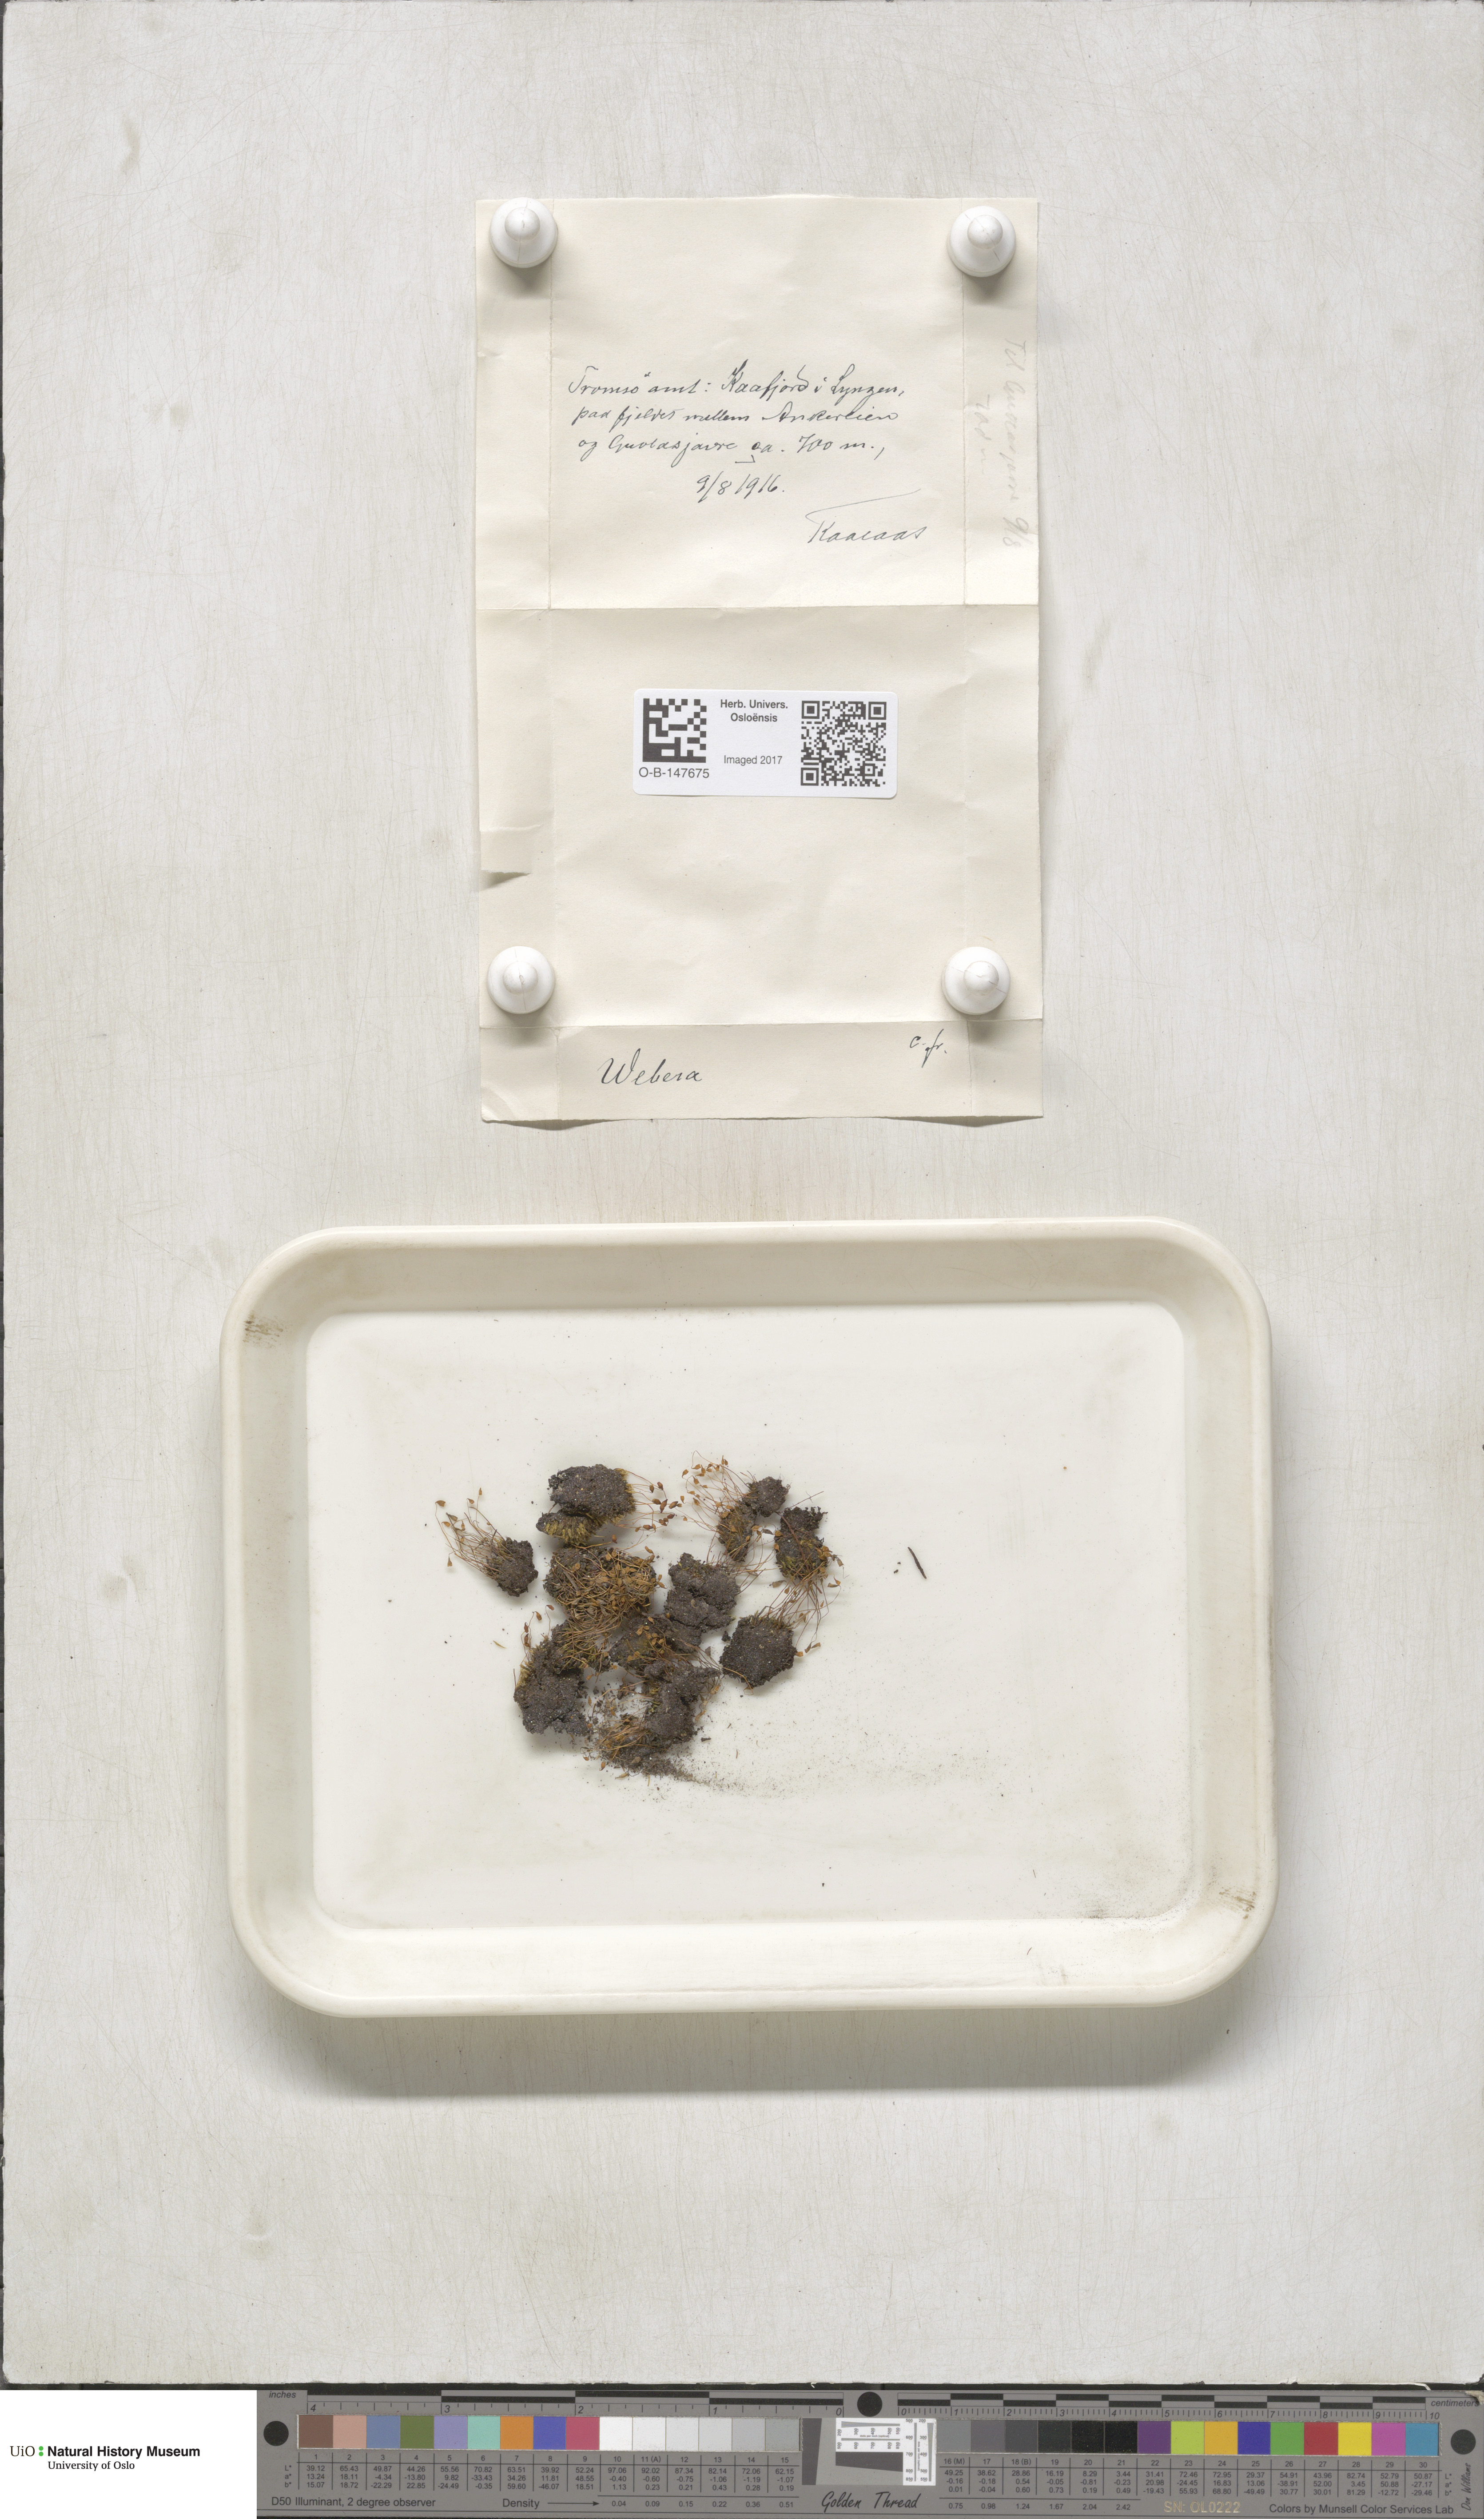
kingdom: Plantae
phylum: Bryophyta
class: Bryopsida
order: Bryales
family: Mniaceae
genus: Pohlia
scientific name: Pohlia
